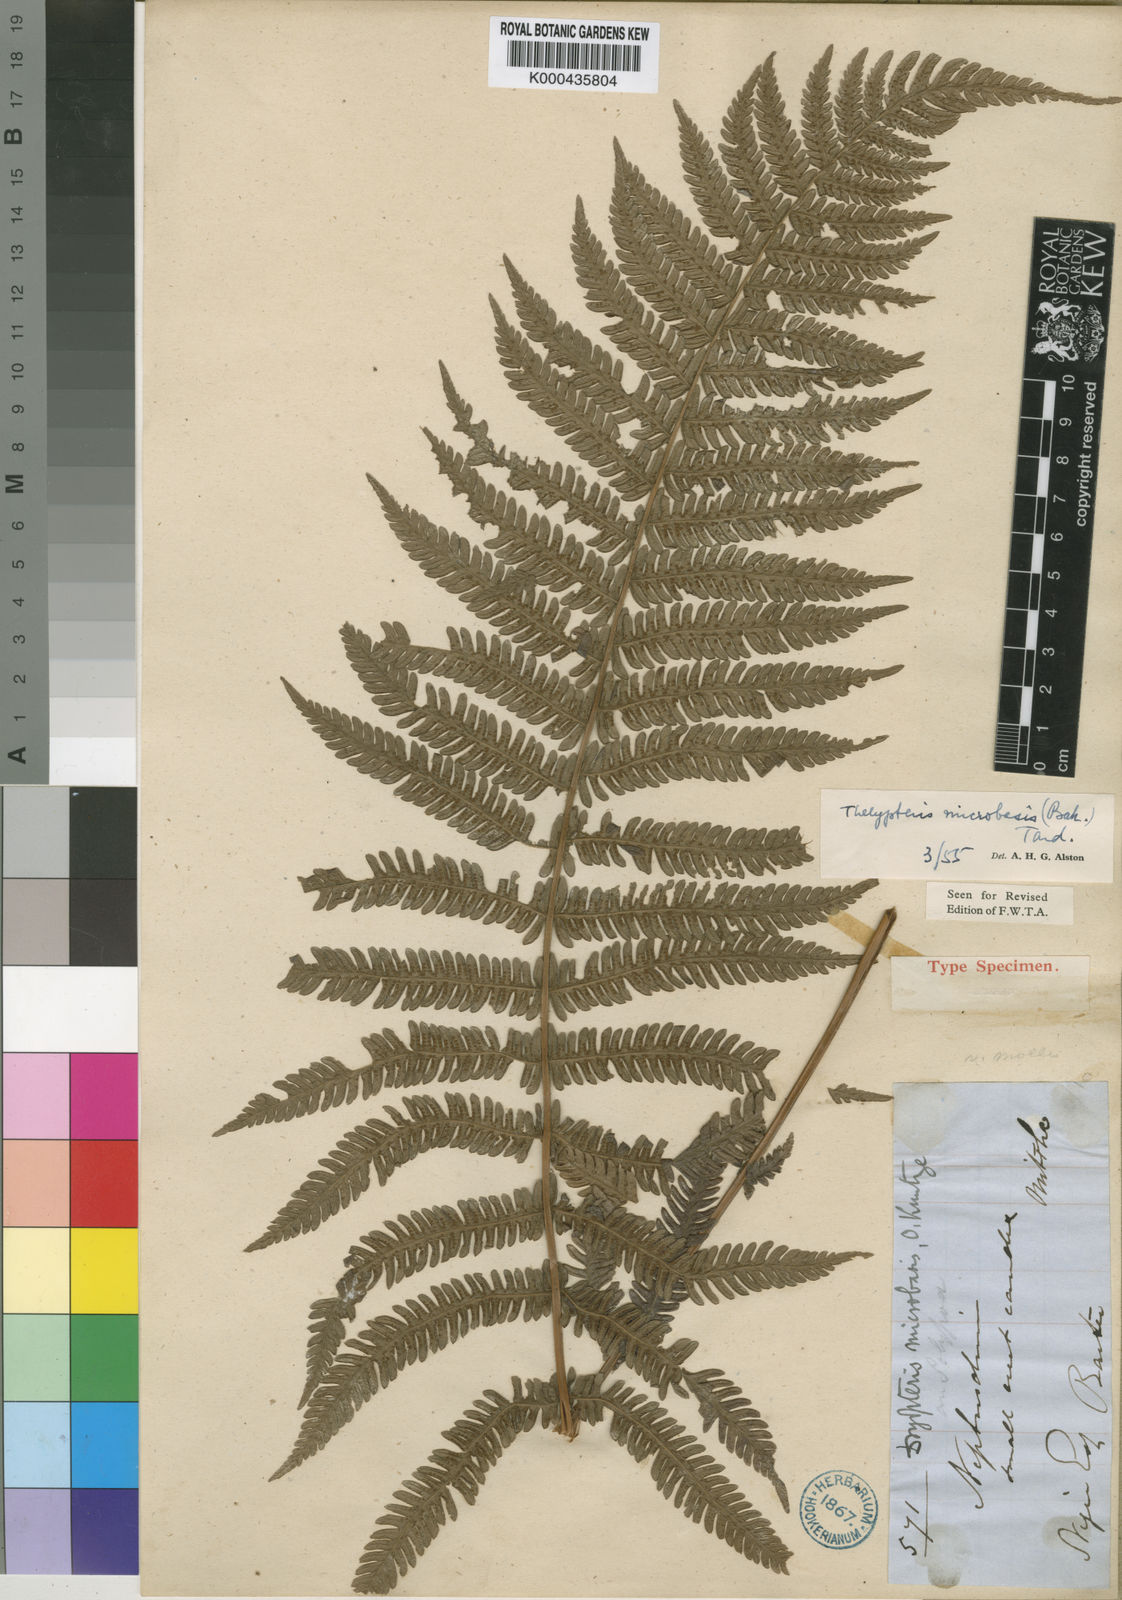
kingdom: Plantae
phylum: Tracheophyta
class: Polypodiopsida
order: Polypodiales
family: Thelypteridaceae
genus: Thelypteris
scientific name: Thelypteris
